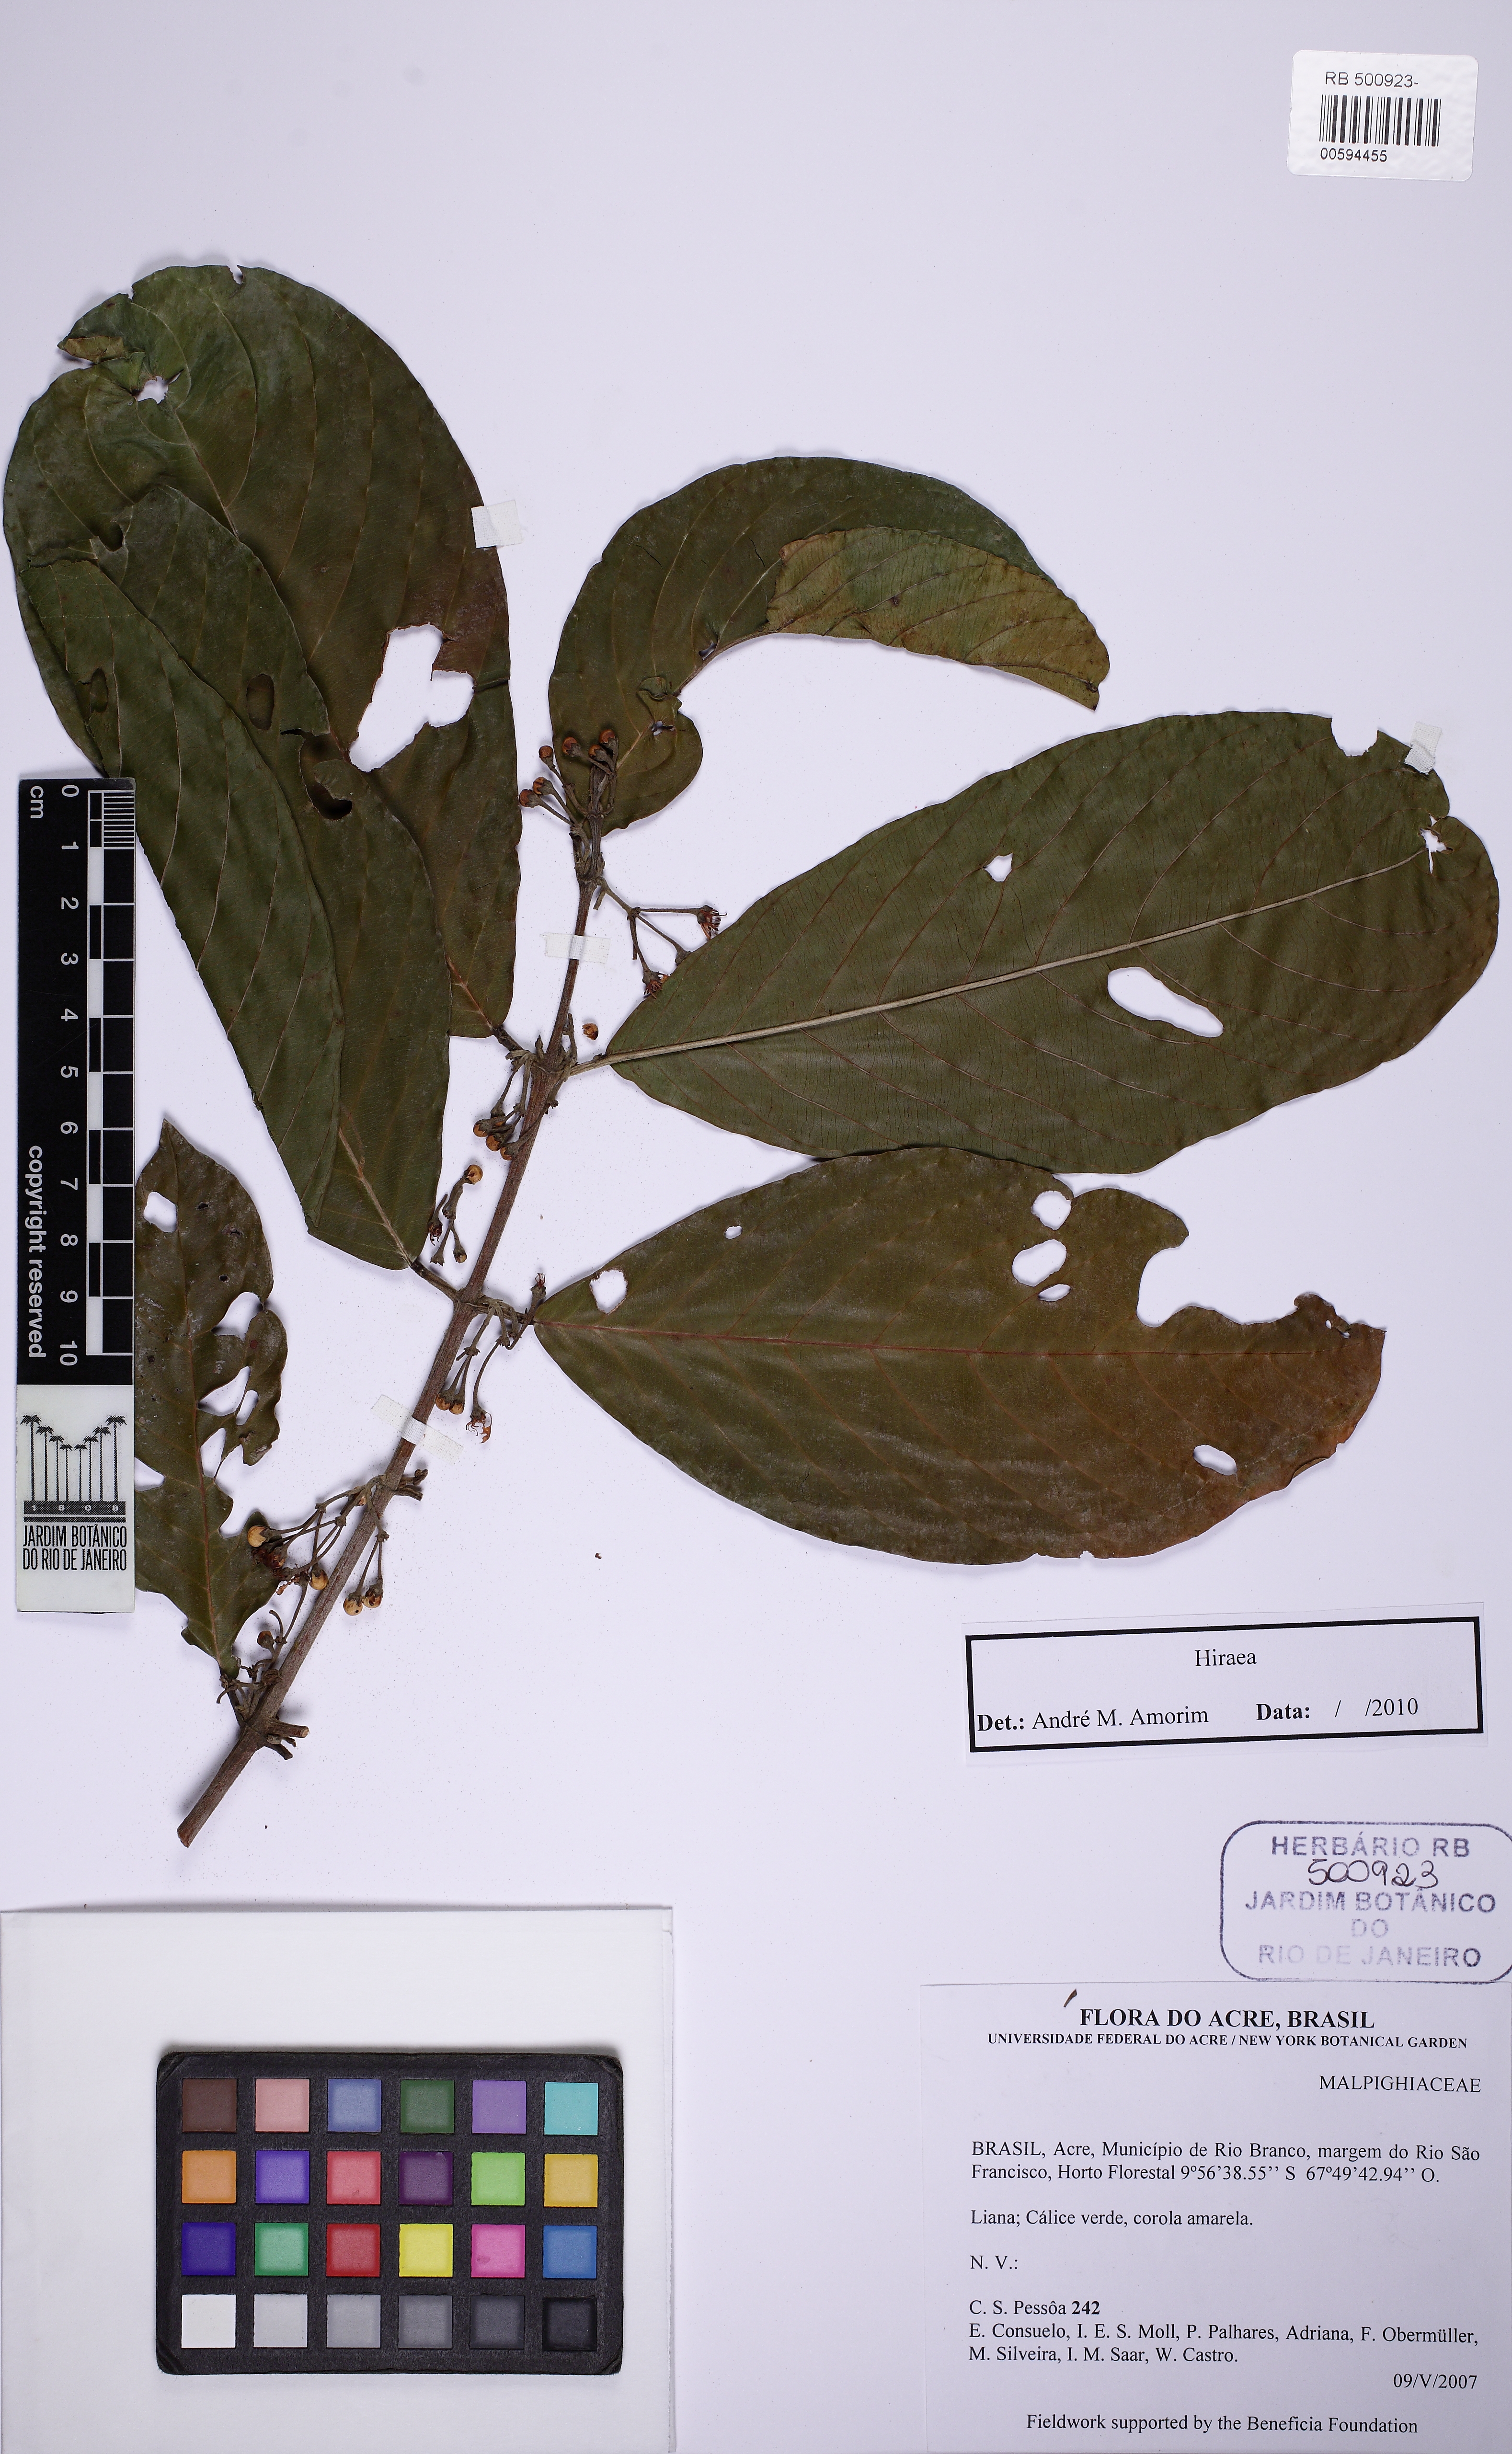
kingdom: Plantae
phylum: Tracheophyta
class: Magnoliopsida
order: Malpighiales
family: Malpighiaceae
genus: Hiraea
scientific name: Hiraea
